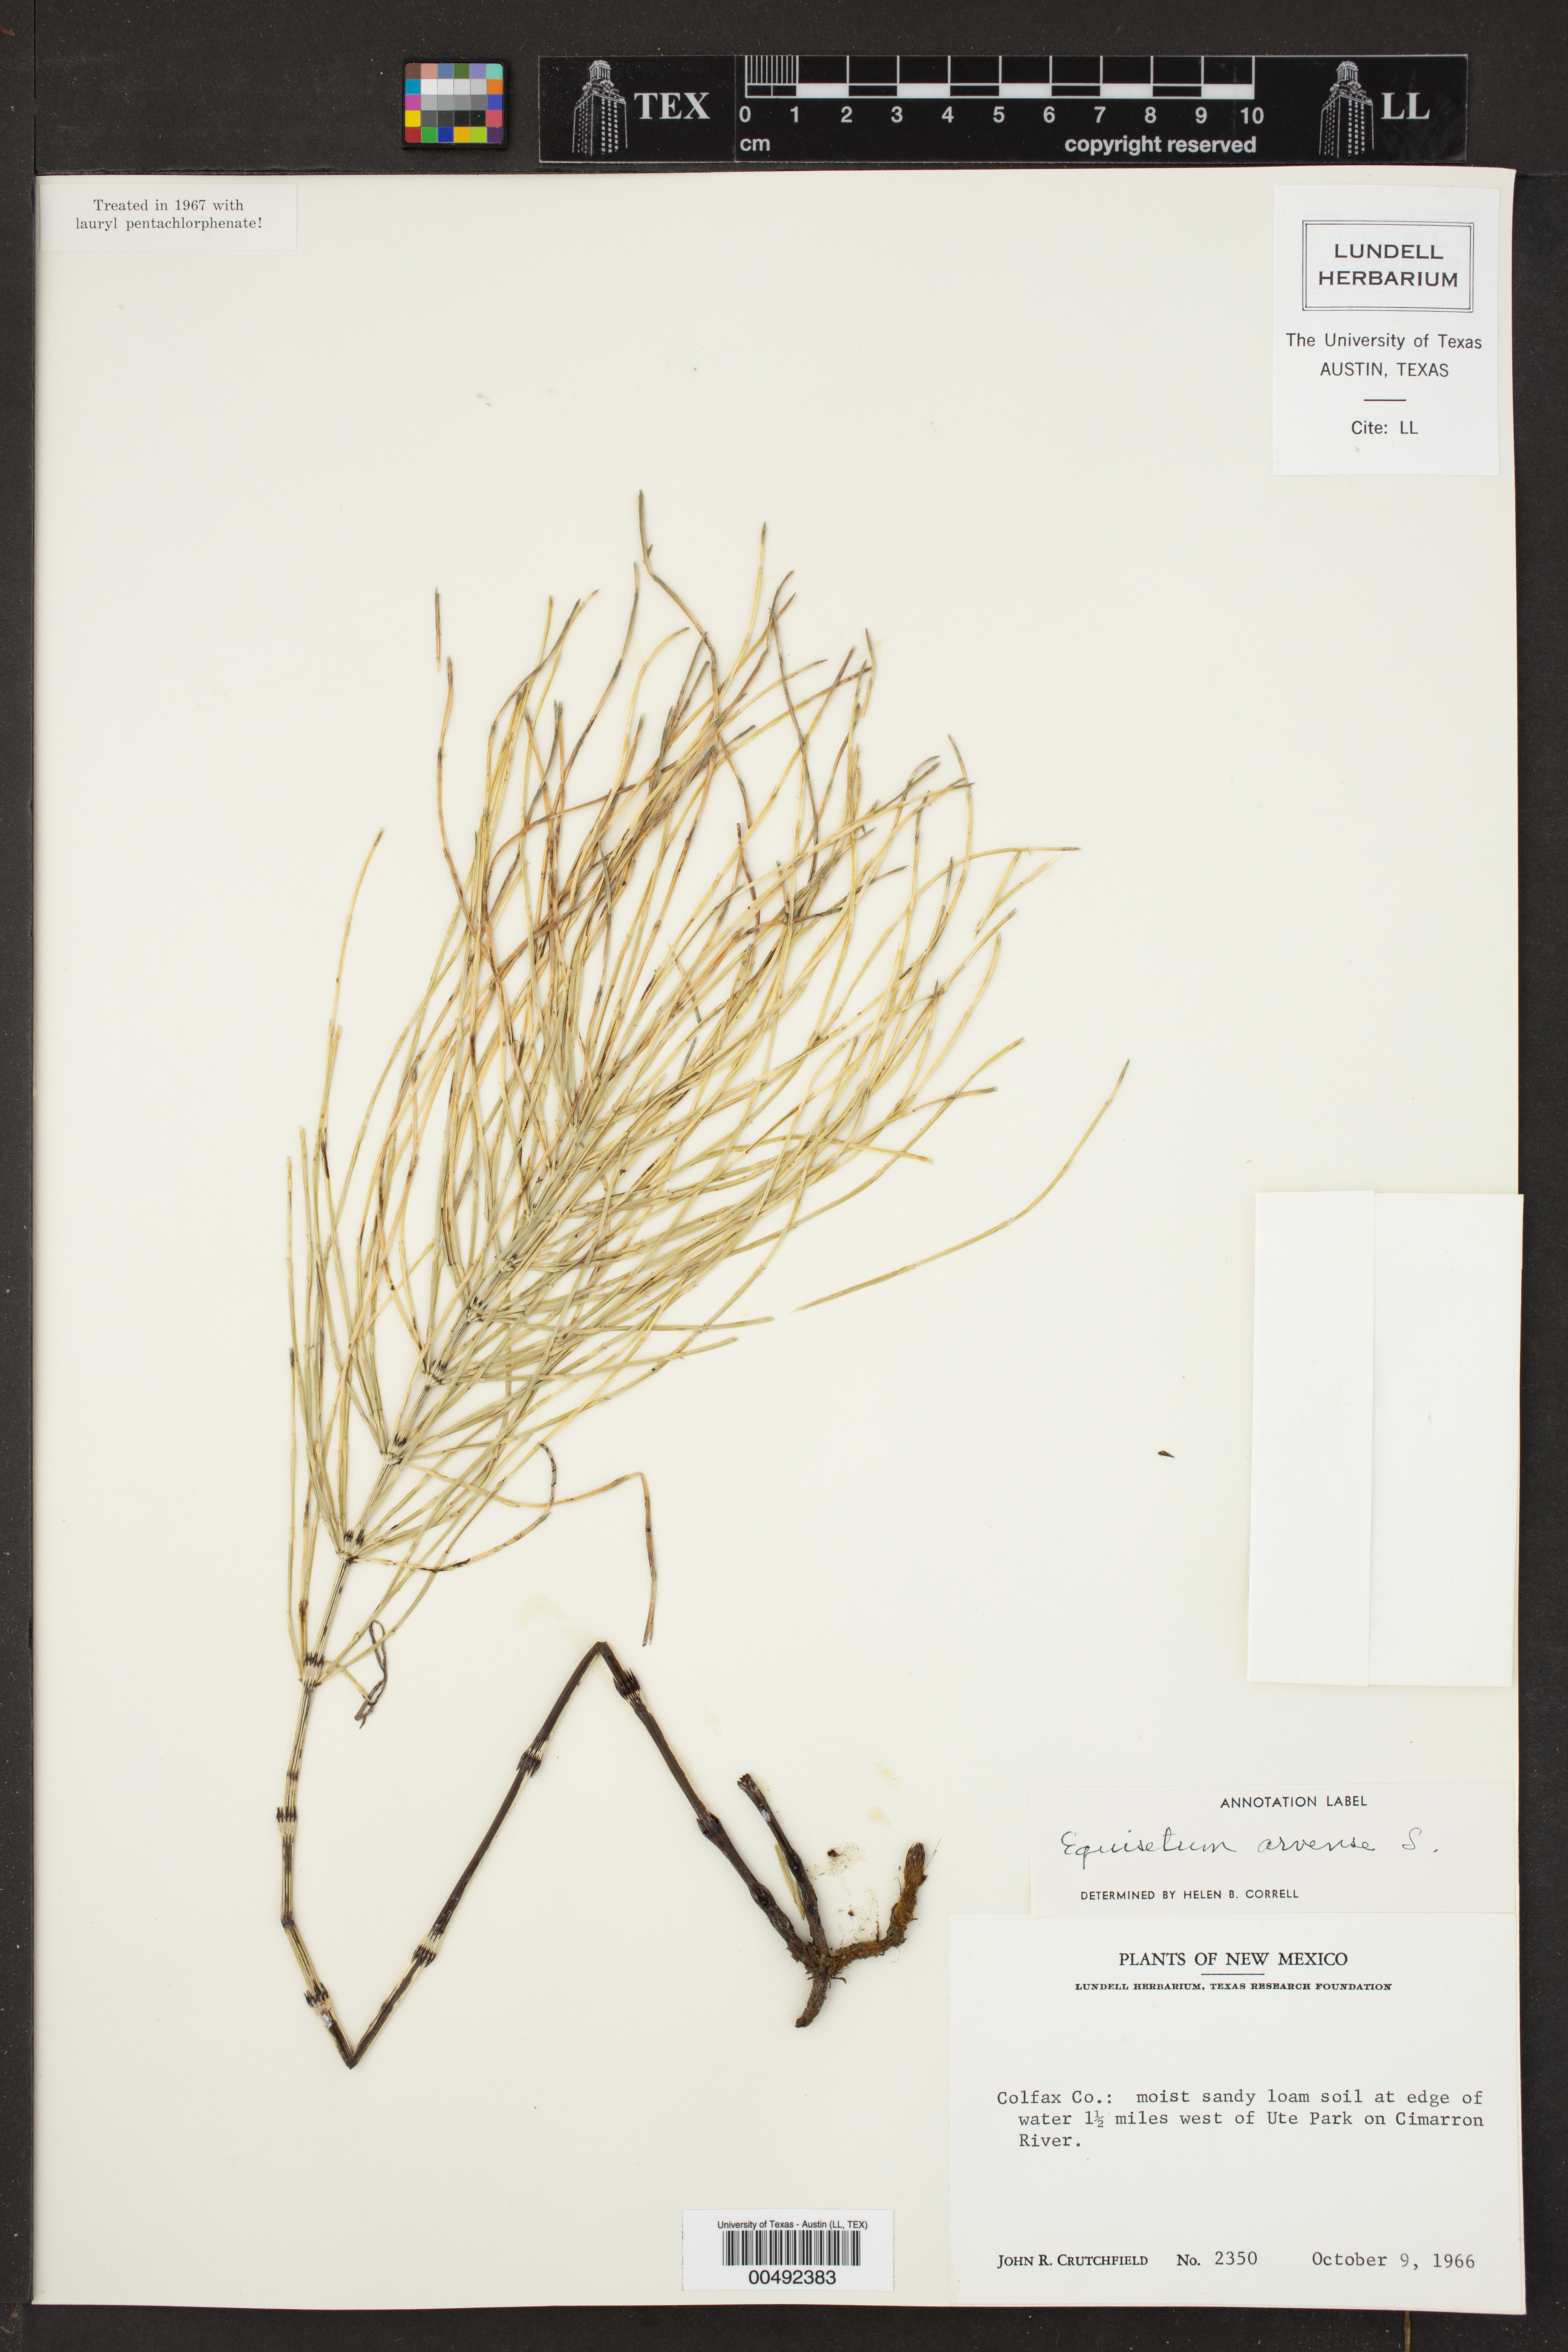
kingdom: Plantae
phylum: Tracheophyta
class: Polypodiopsida
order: Equisetales
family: Equisetaceae
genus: Equisetum
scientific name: Equisetum arvense
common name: Field horsetail
